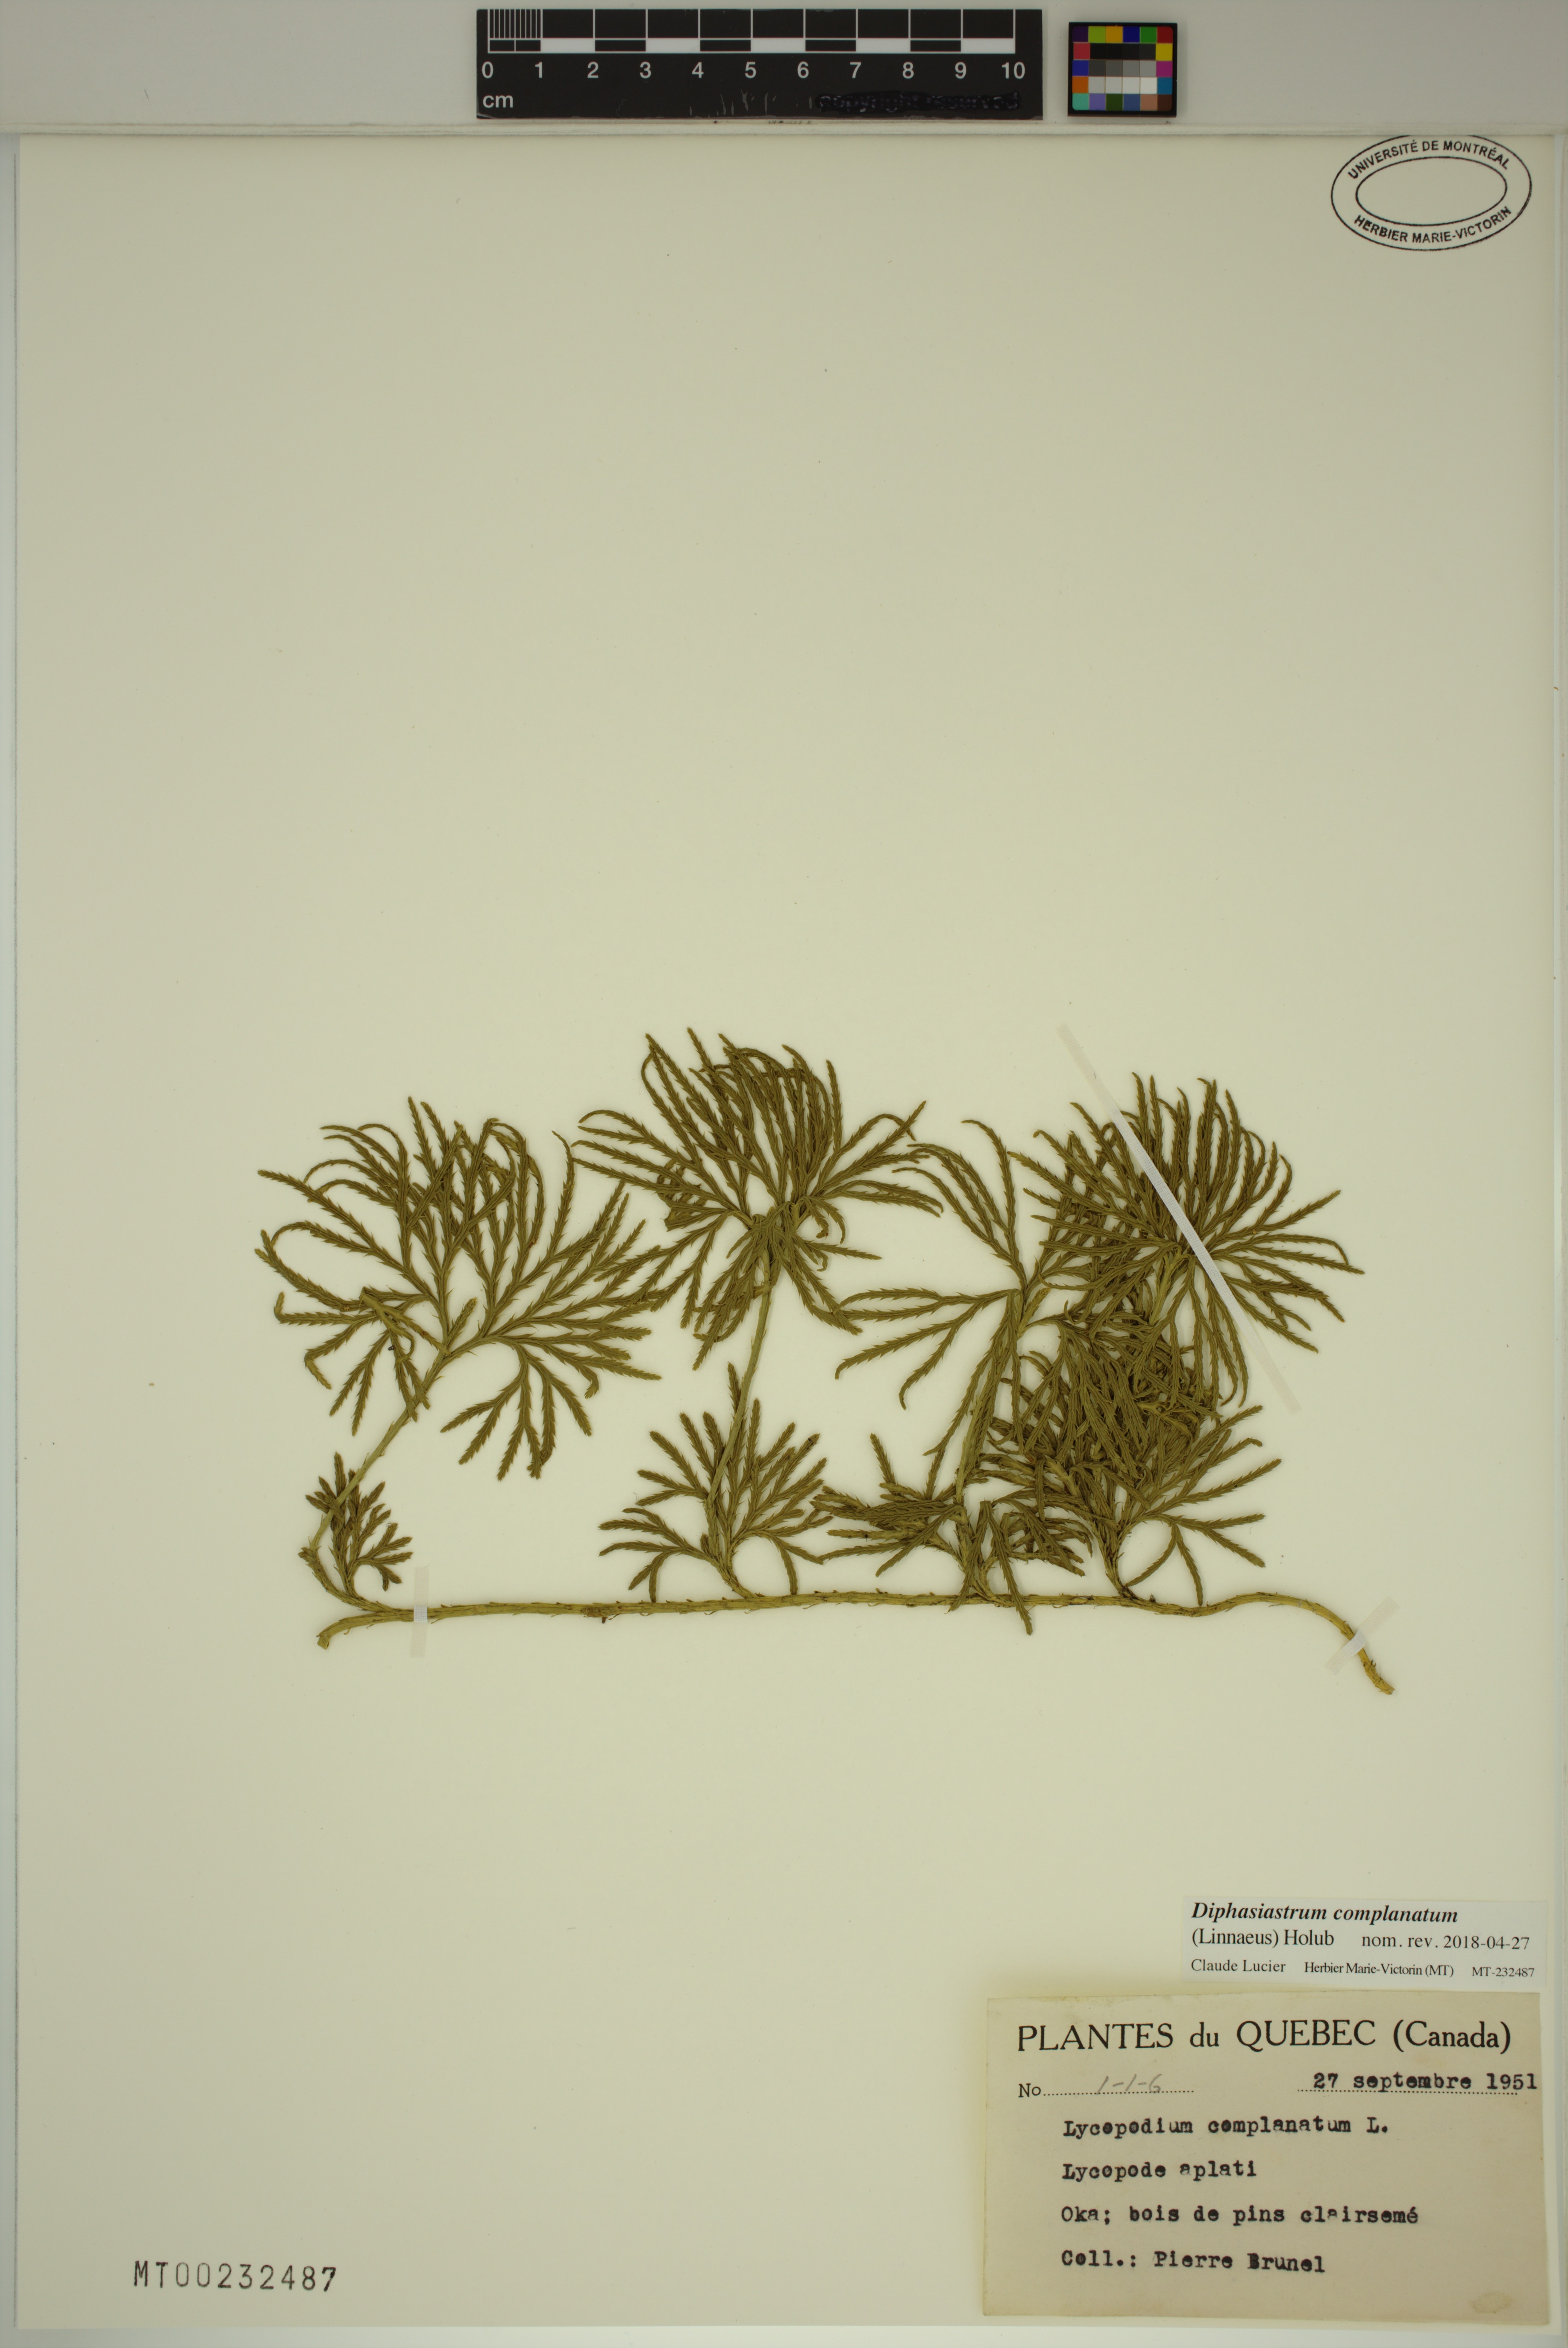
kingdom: Plantae
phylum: Tracheophyta
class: Lycopodiopsida
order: Lycopodiales
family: Lycopodiaceae
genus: Diphasiastrum
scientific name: Diphasiastrum complanatum
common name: Northern running-pine
